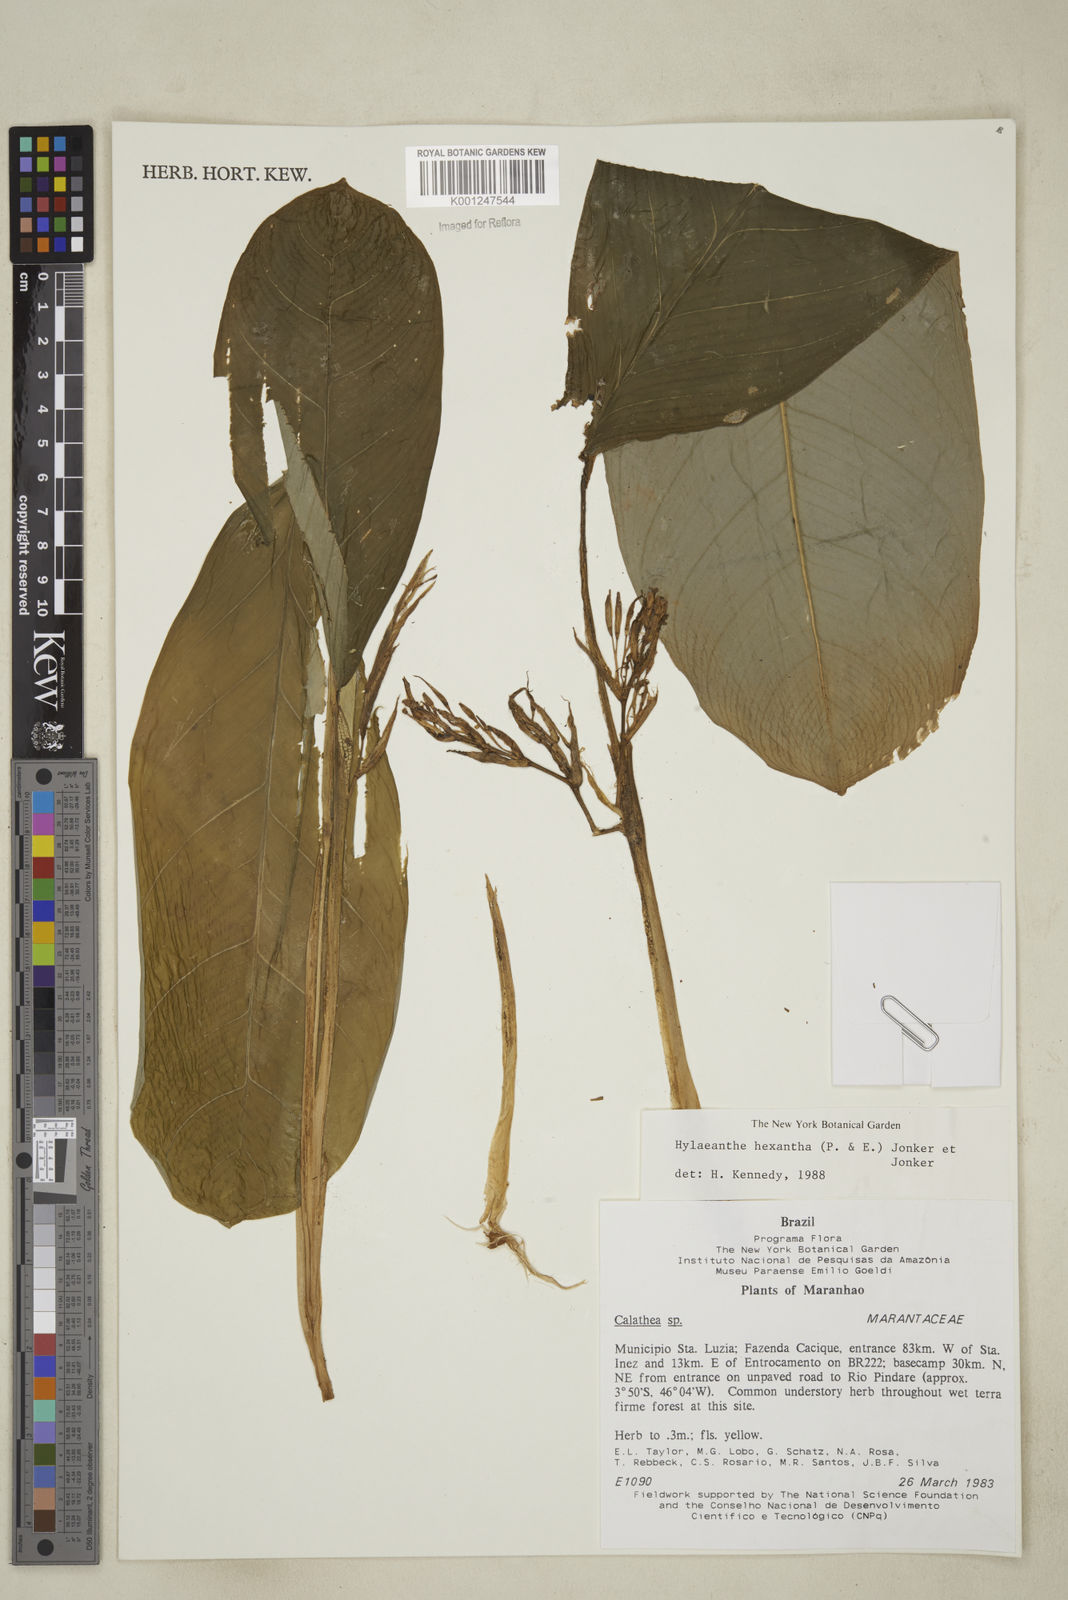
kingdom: Plantae
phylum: Tracheophyta
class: Liliopsida
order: Zingiberales
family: Marantaceae
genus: Hylaeanthe
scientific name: Hylaeanthe hexantha
